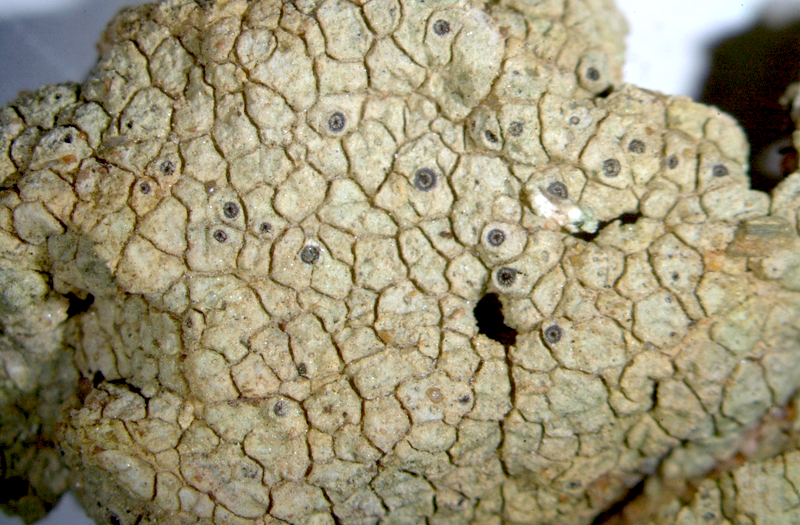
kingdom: Fungi
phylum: Ascomycota
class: Lecanoromycetes
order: Ostropales
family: Graphidaceae
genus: Diploschistes
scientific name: Diploschistes hensseniae
